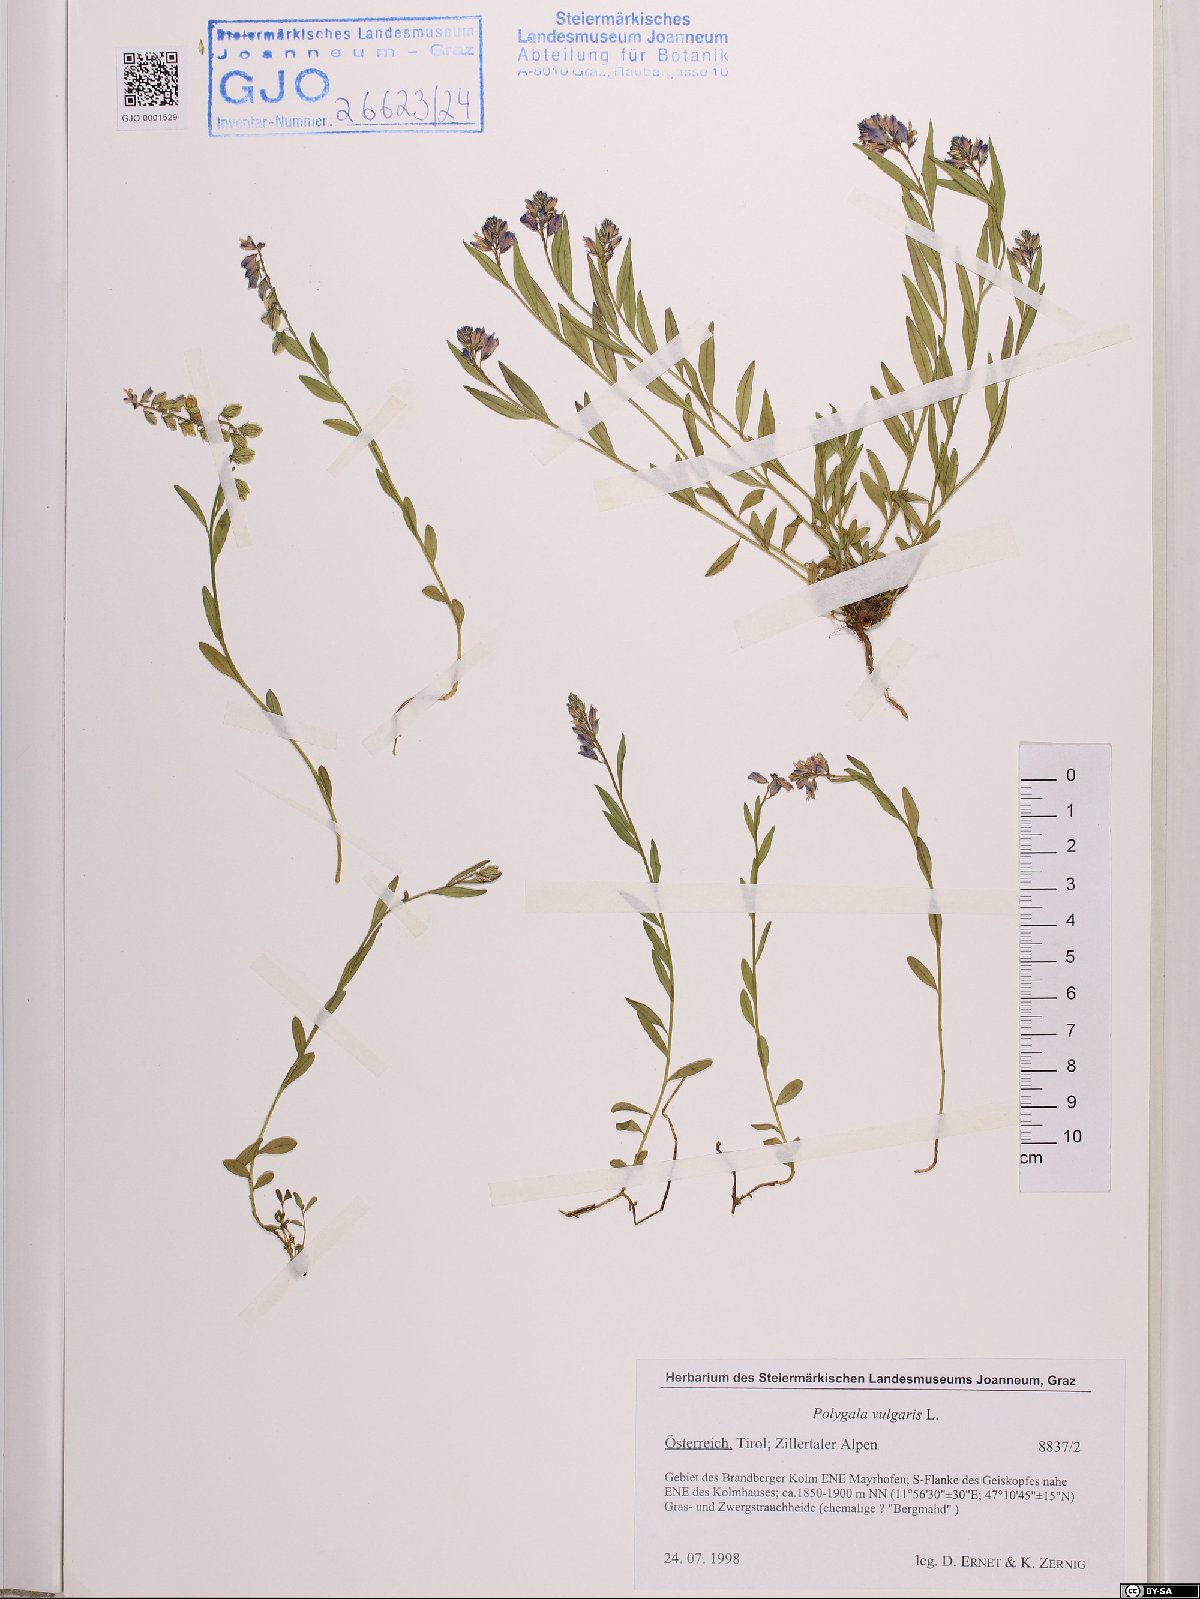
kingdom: Plantae
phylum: Tracheophyta
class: Magnoliopsida
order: Fabales
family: Polygalaceae
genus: Polygala
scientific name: Polygala vulgaris
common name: Common milkwort
